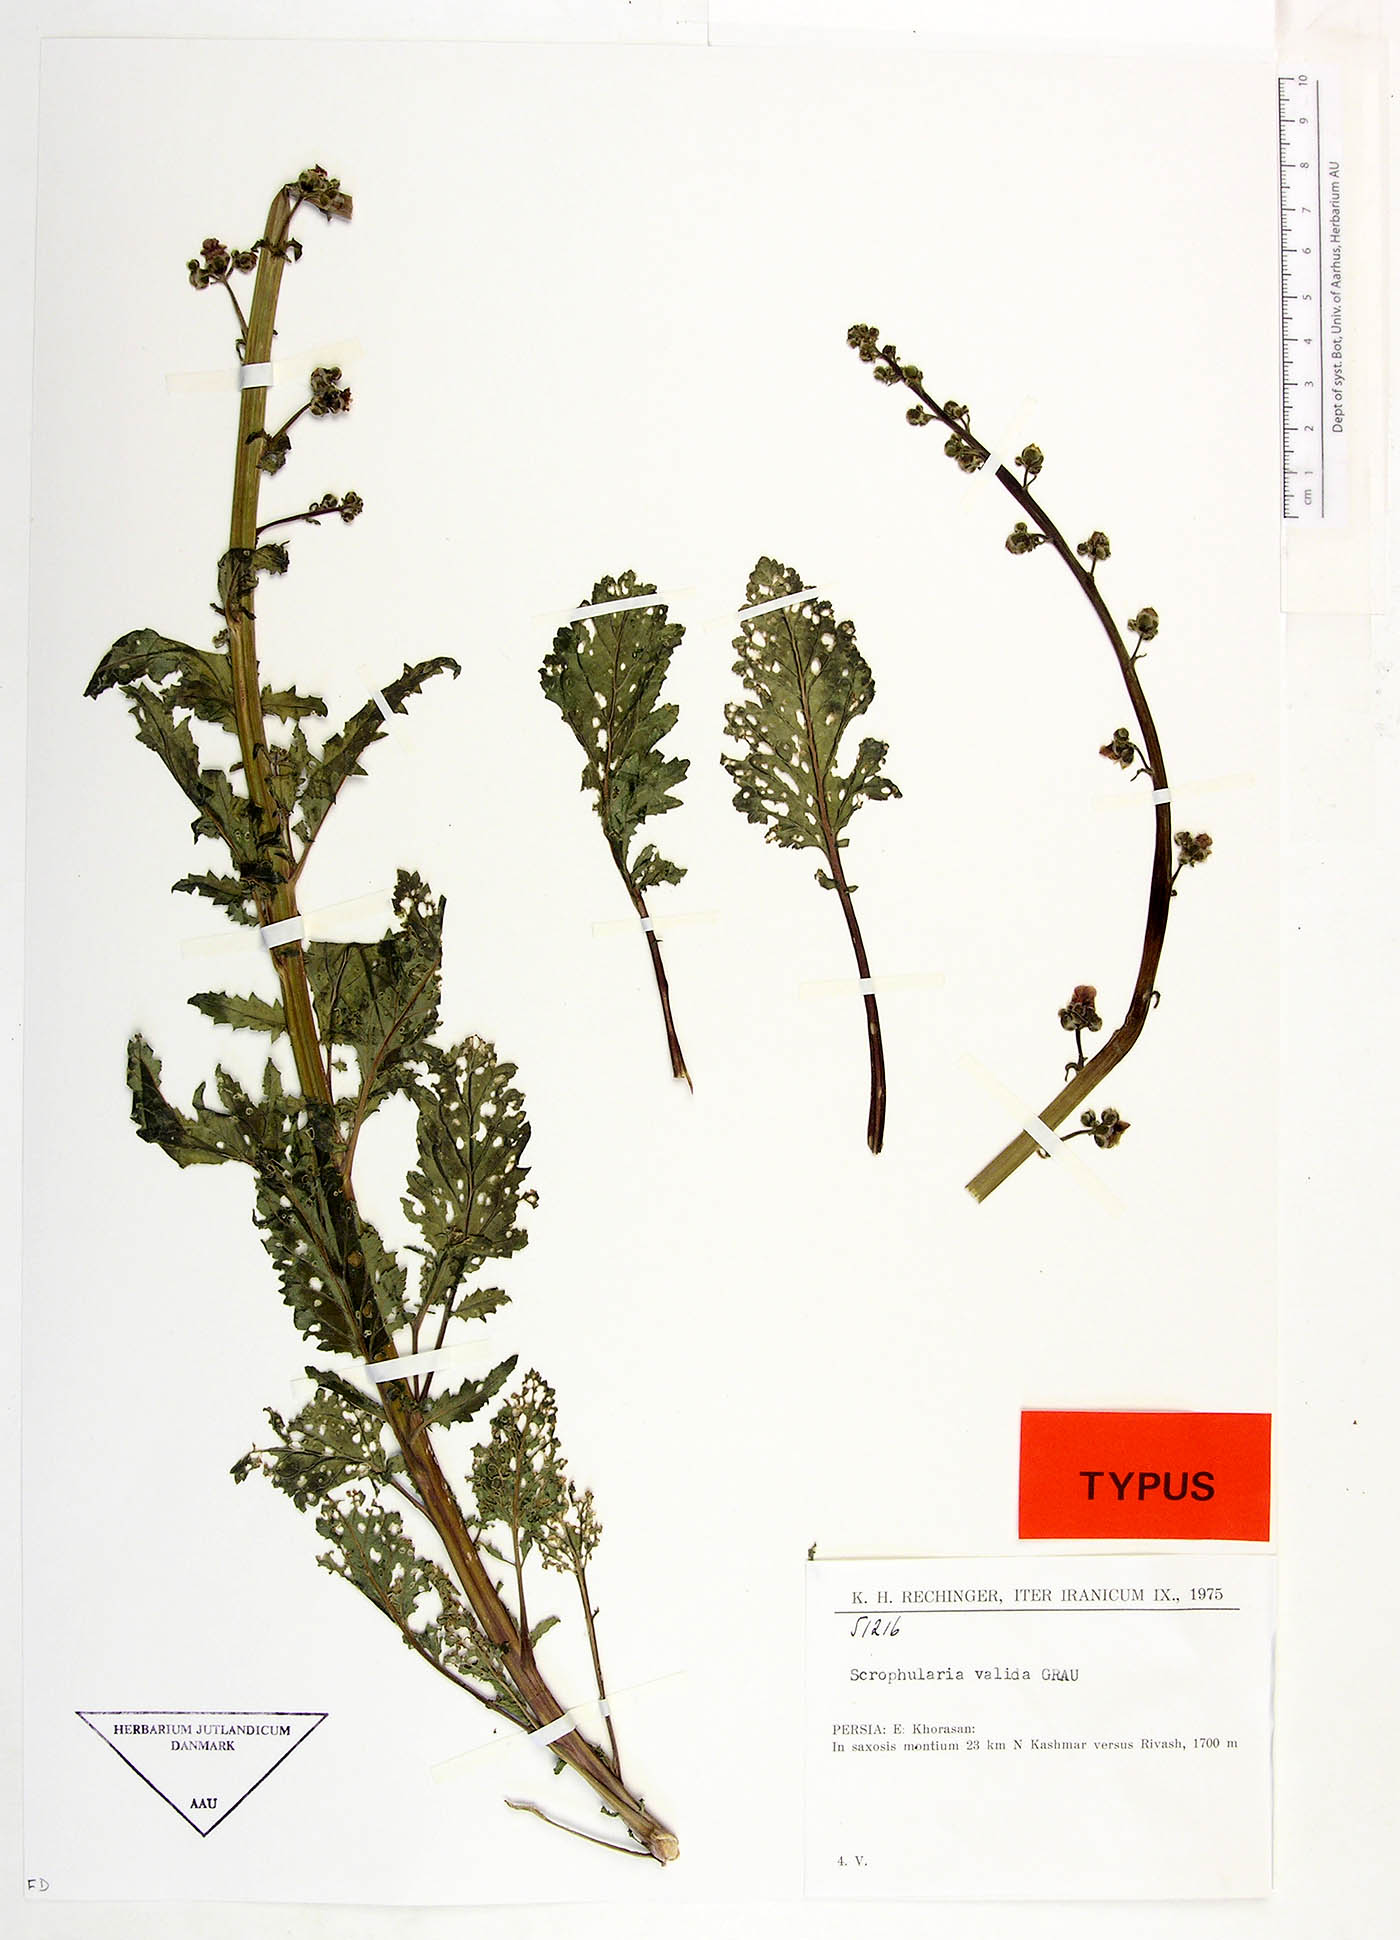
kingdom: Plantae
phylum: Tracheophyta
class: Magnoliopsida
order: Lamiales
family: Scrophulariaceae
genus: Scrophularia
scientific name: Scrophularia valida
